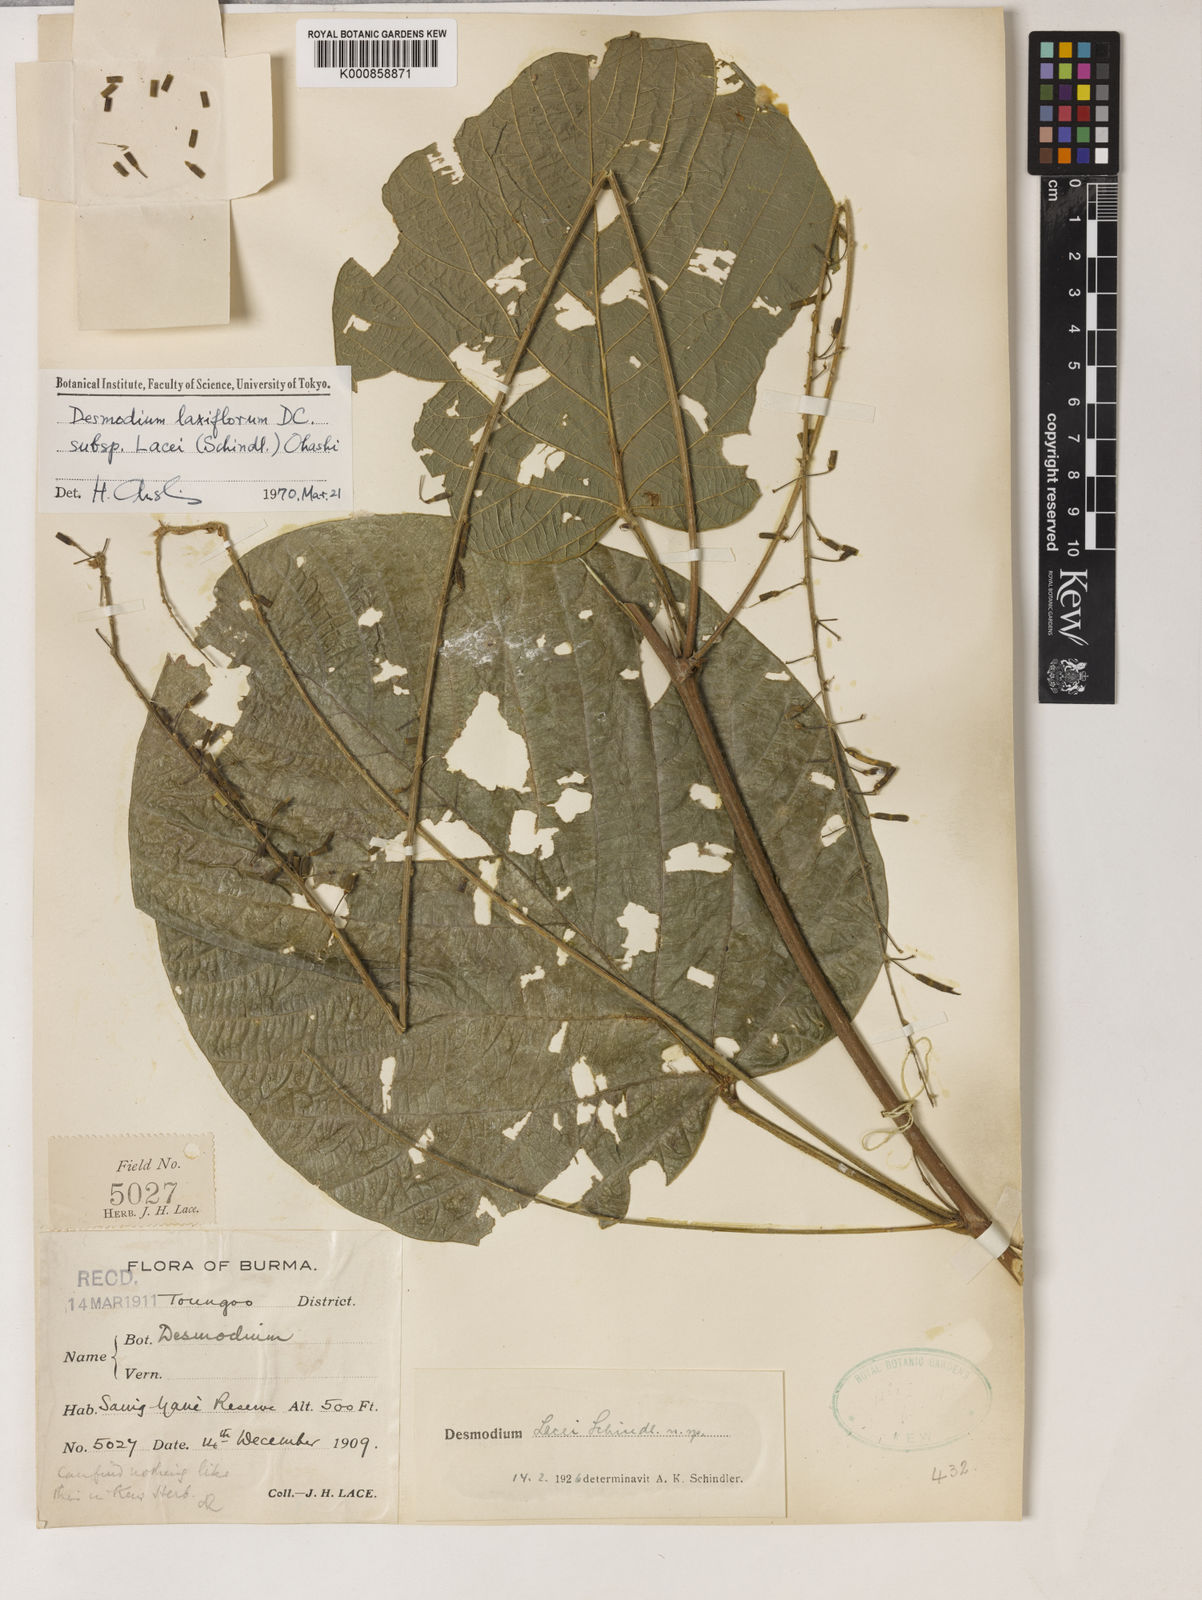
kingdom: Plantae
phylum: Tracheophyta
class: Magnoliopsida
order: Fabales
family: Fabaceae
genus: Sohmaea
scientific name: Sohmaea lacei
